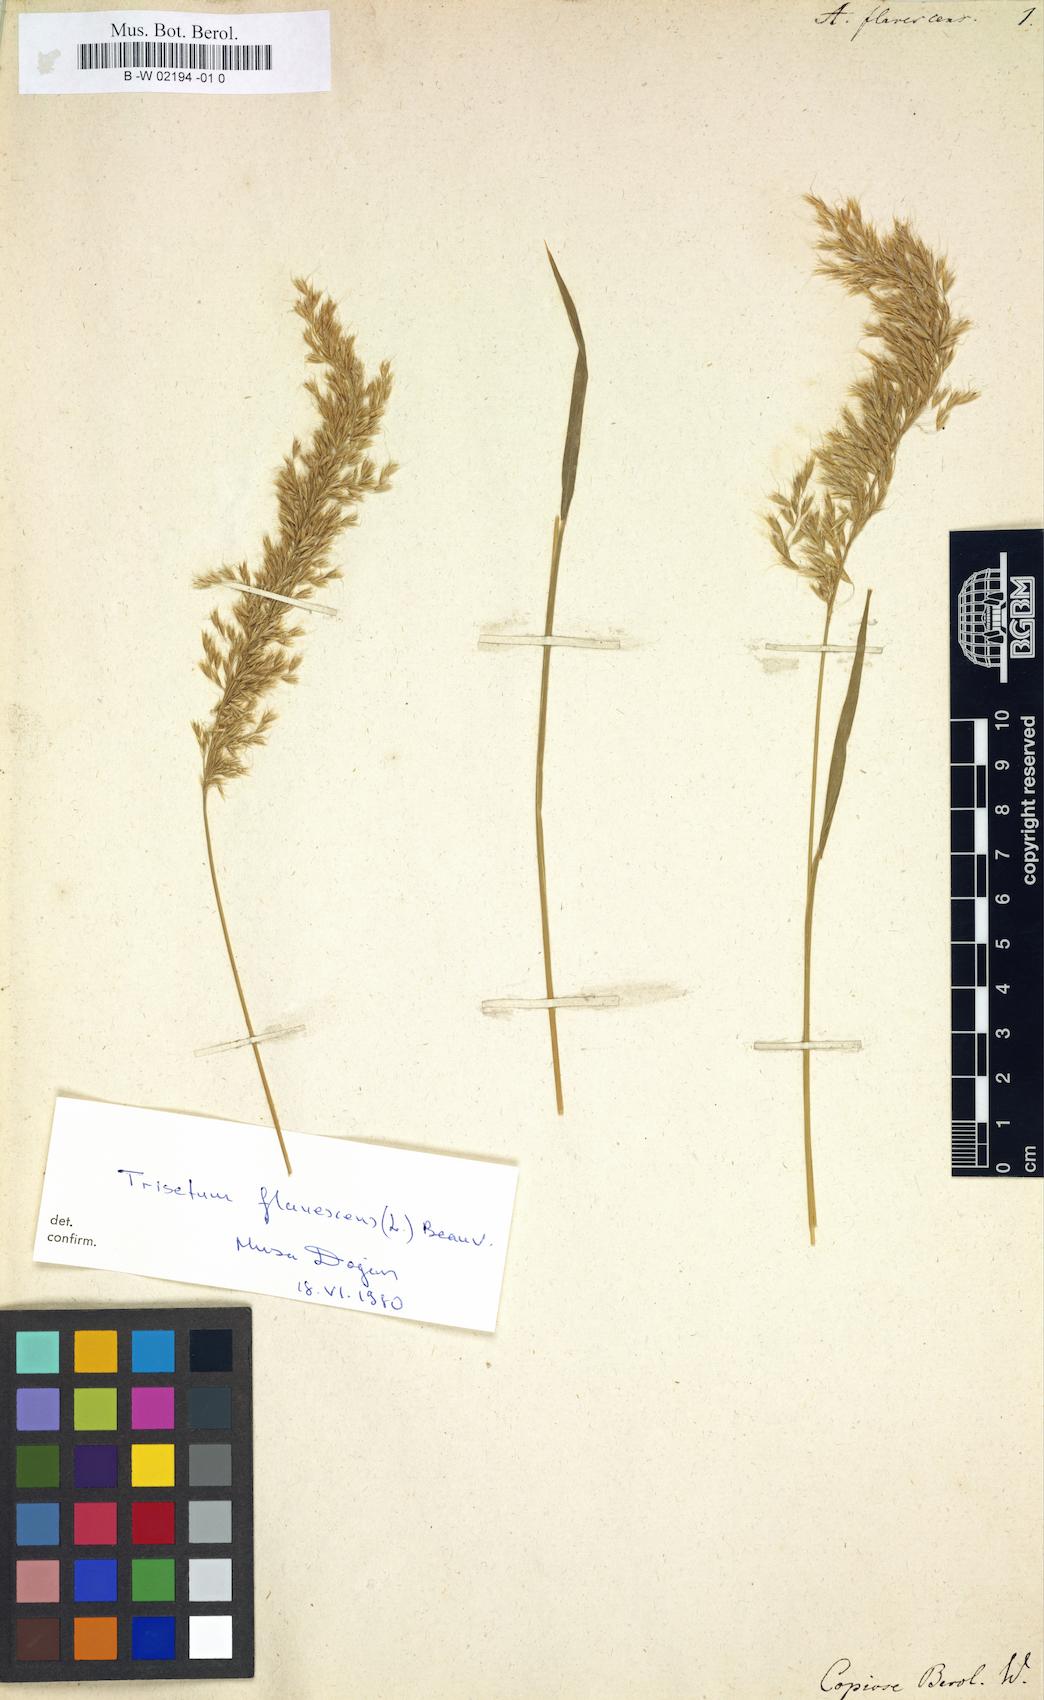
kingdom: Plantae
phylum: Tracheophyta
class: Liliopsida
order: Poales
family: Poaceae
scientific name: Poaceae
